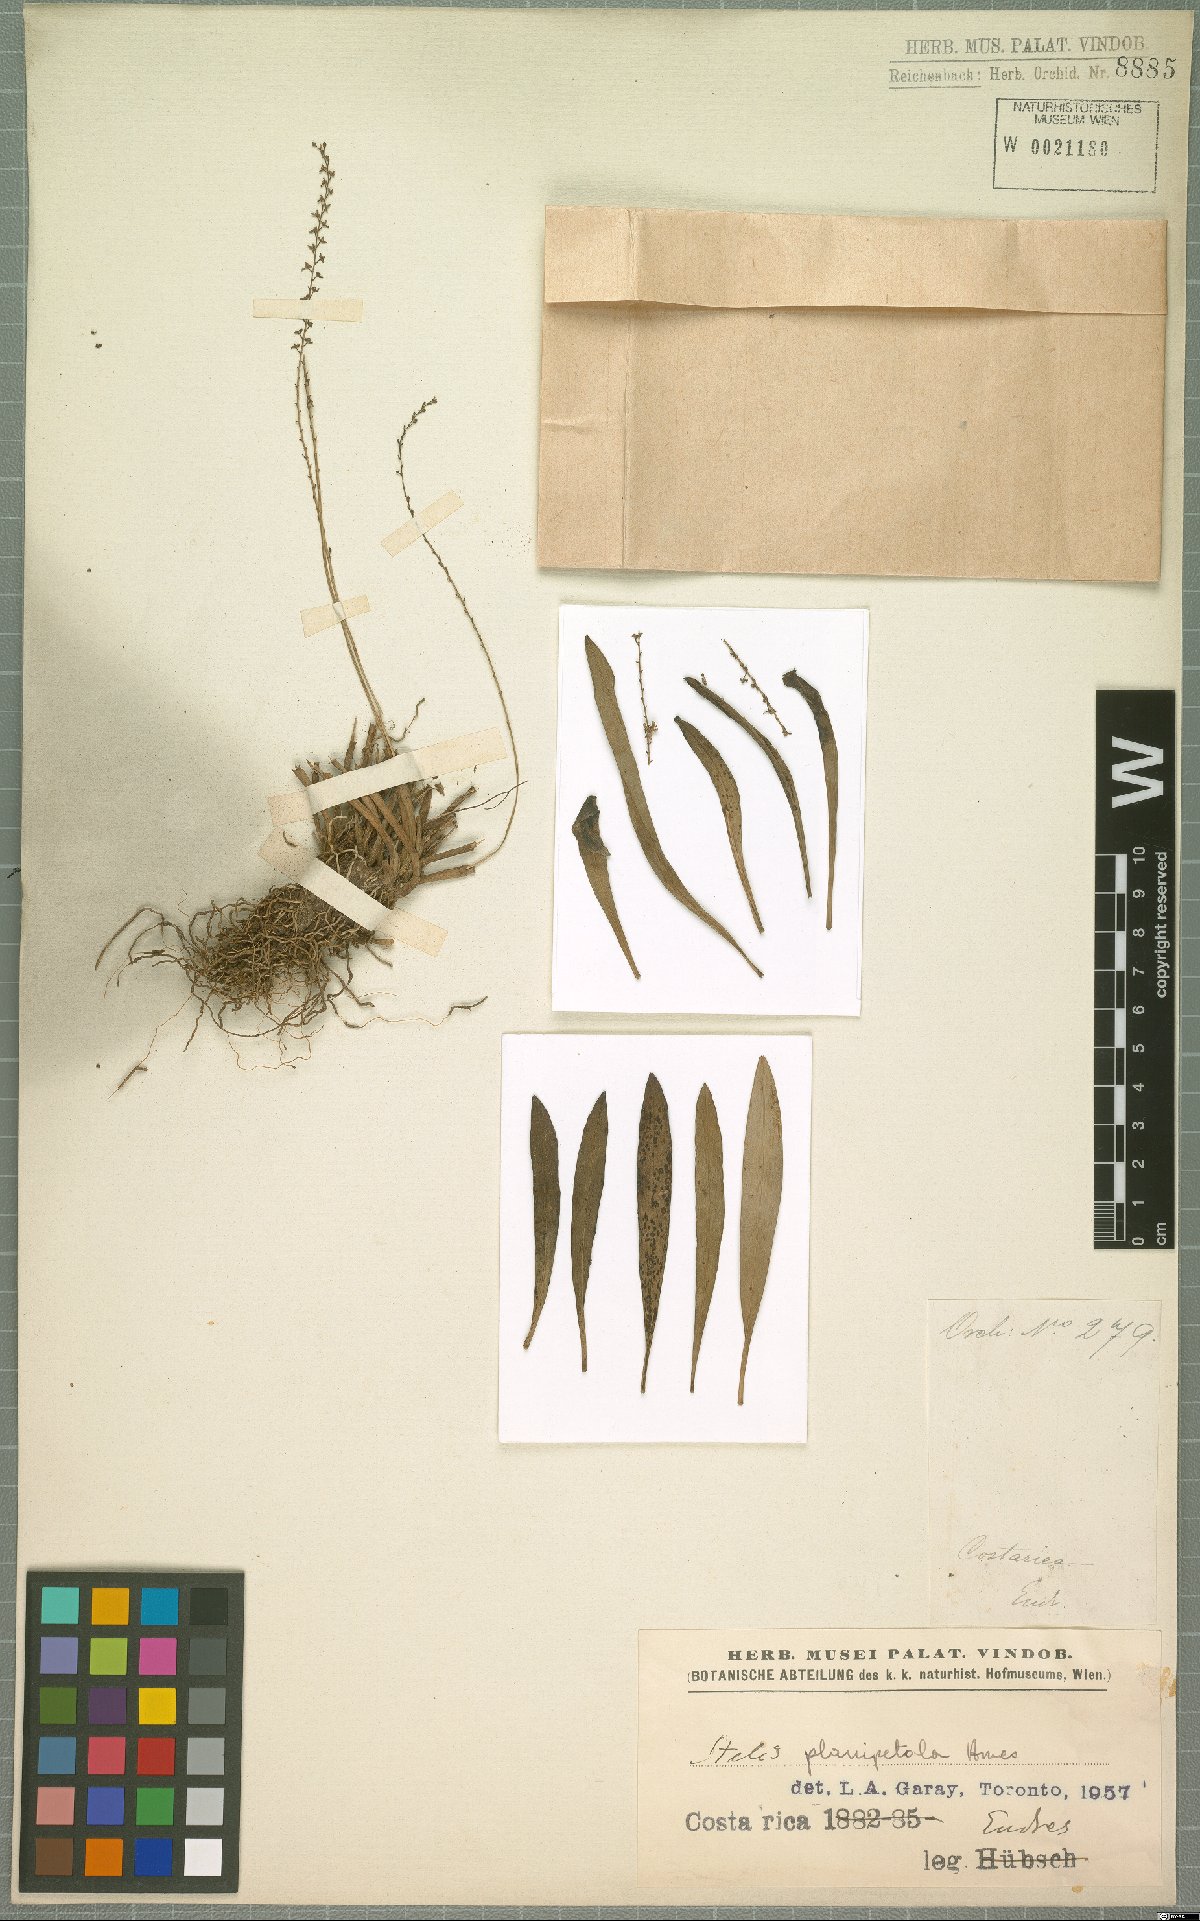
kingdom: Plantae
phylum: Tracheophyta
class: Liliopsida
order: Asparagales
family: Orchidaceae
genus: Stelis
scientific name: Stelis planipetala
